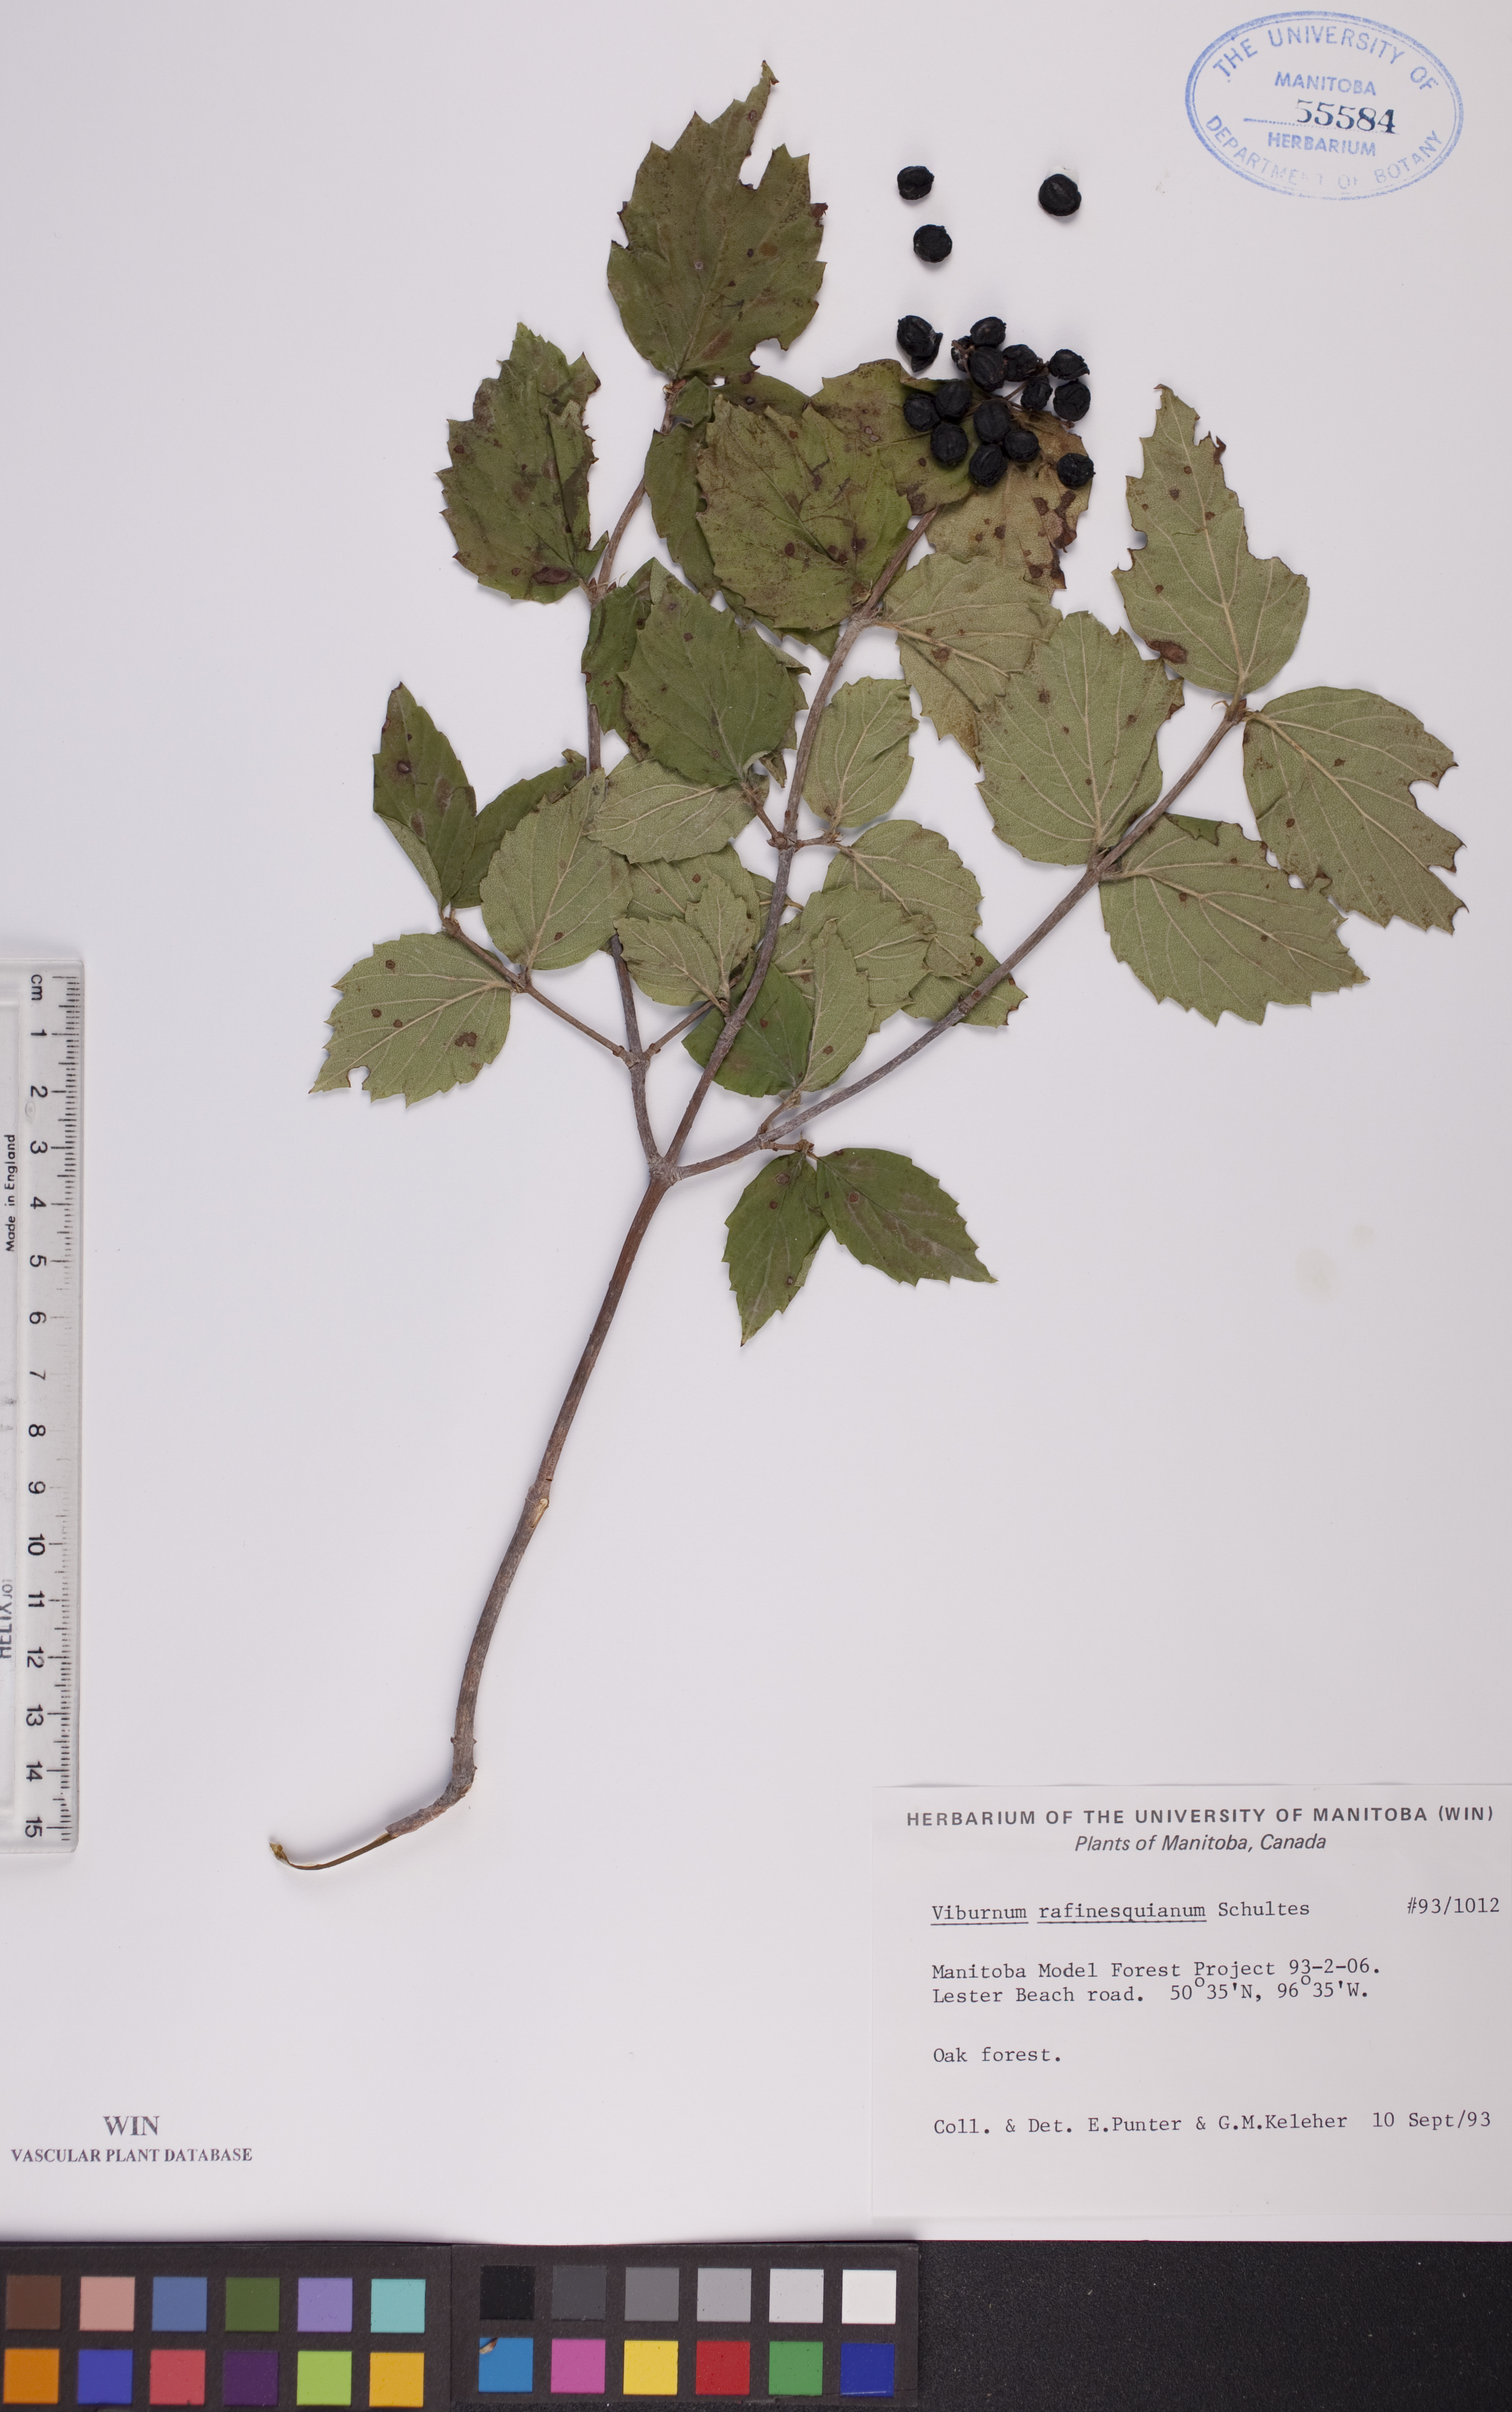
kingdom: Plantae
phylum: Tracheophyta
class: Magnoliopsida
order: Dipsacales
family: Viburnaceae
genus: Viburnum
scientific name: Viburnum rafinesquianum
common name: Downy arrow-wood
